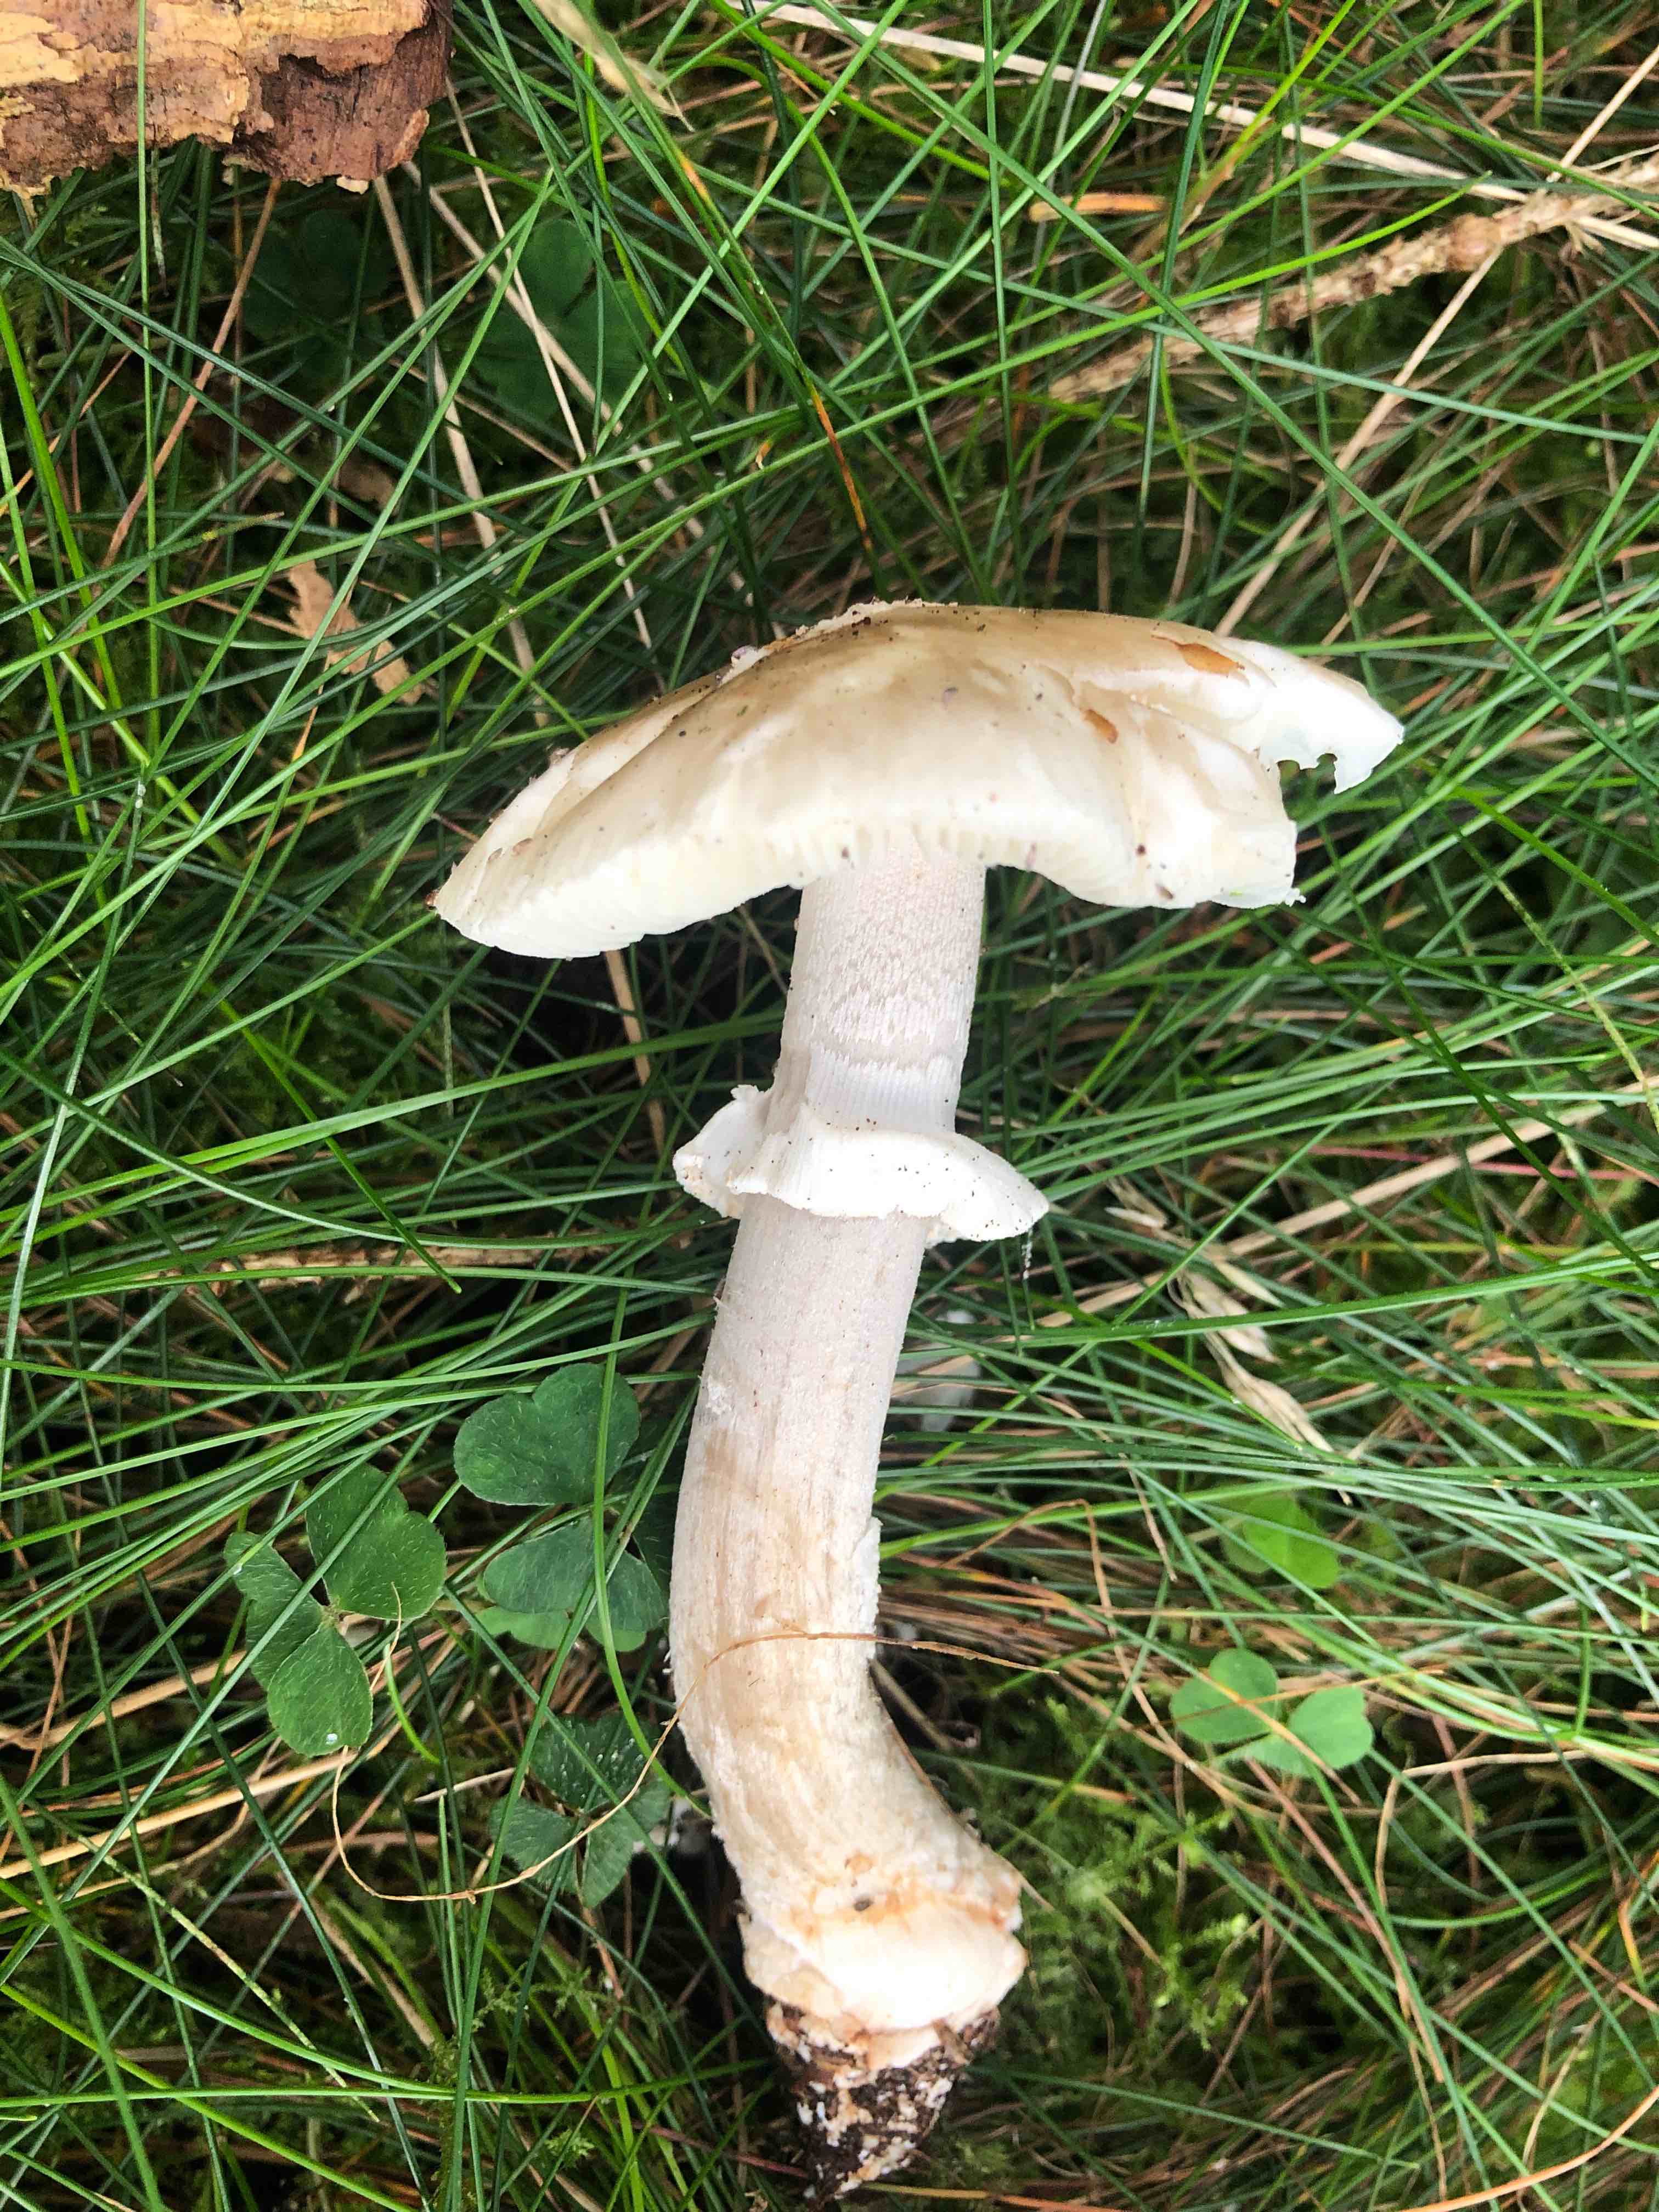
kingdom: Fungi
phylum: Basidiomycota
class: Agaricomycetes
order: Agaricales
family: Amanitaceae
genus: Amanita
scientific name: Amanita
